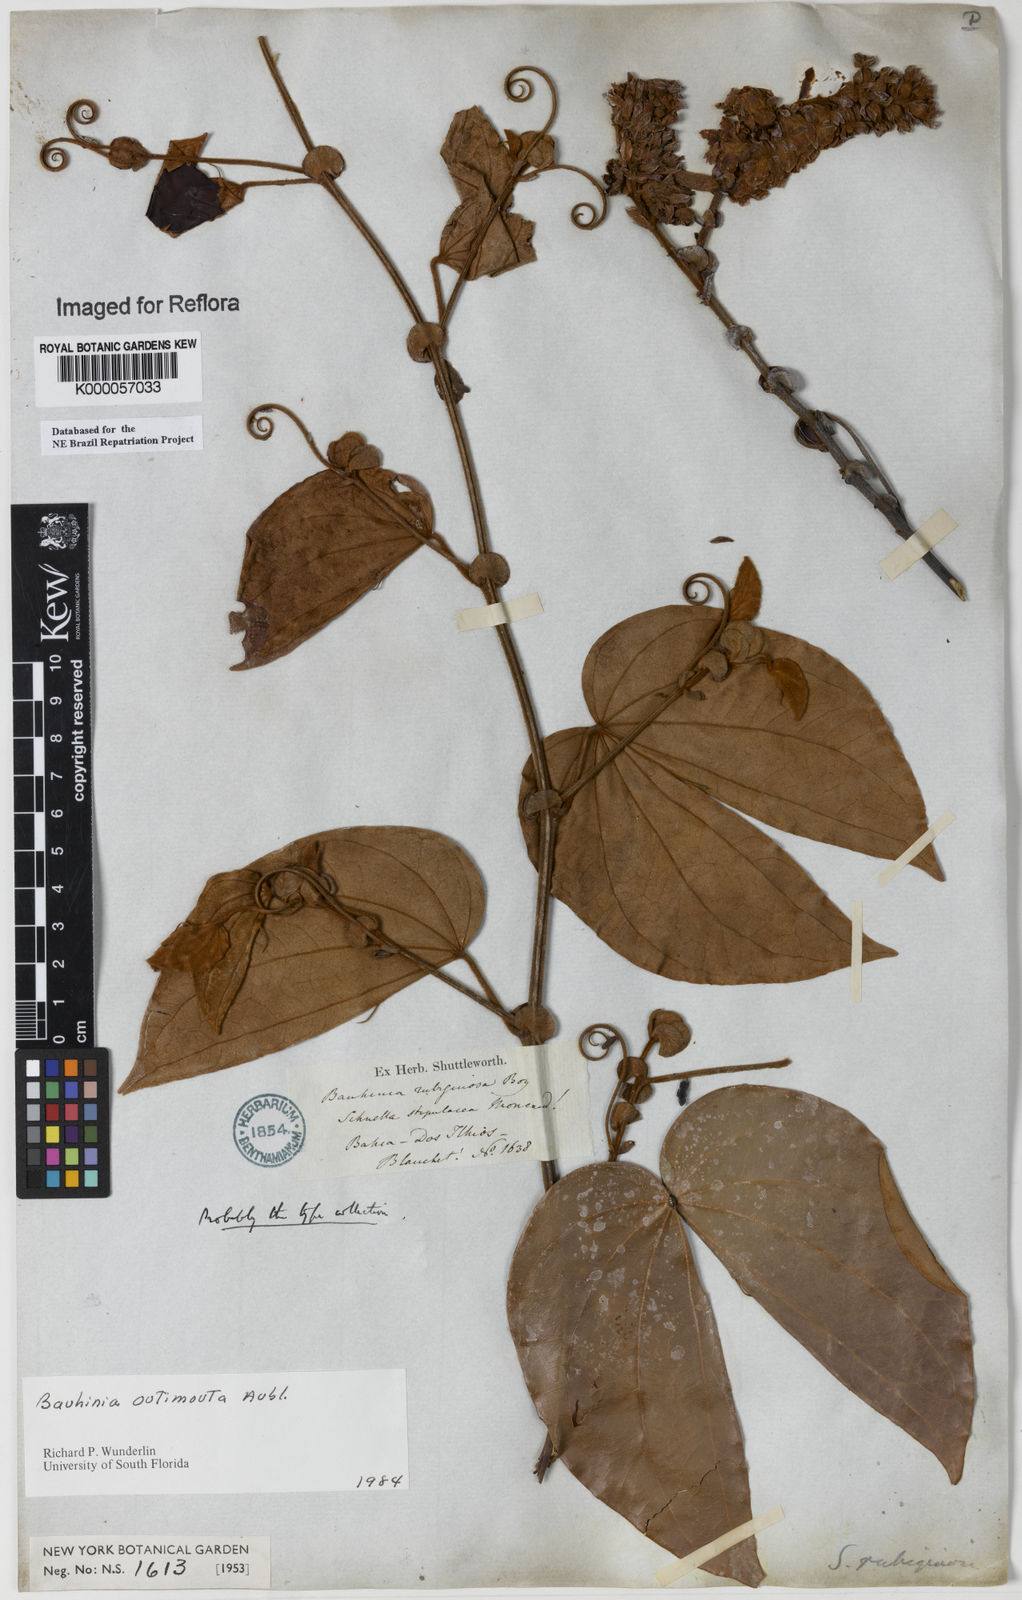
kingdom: Plantae
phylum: Tracheophyta
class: Magnoliopsida
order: Fabales
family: Fabaceae
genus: Schnella
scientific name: Schnella outimouta
